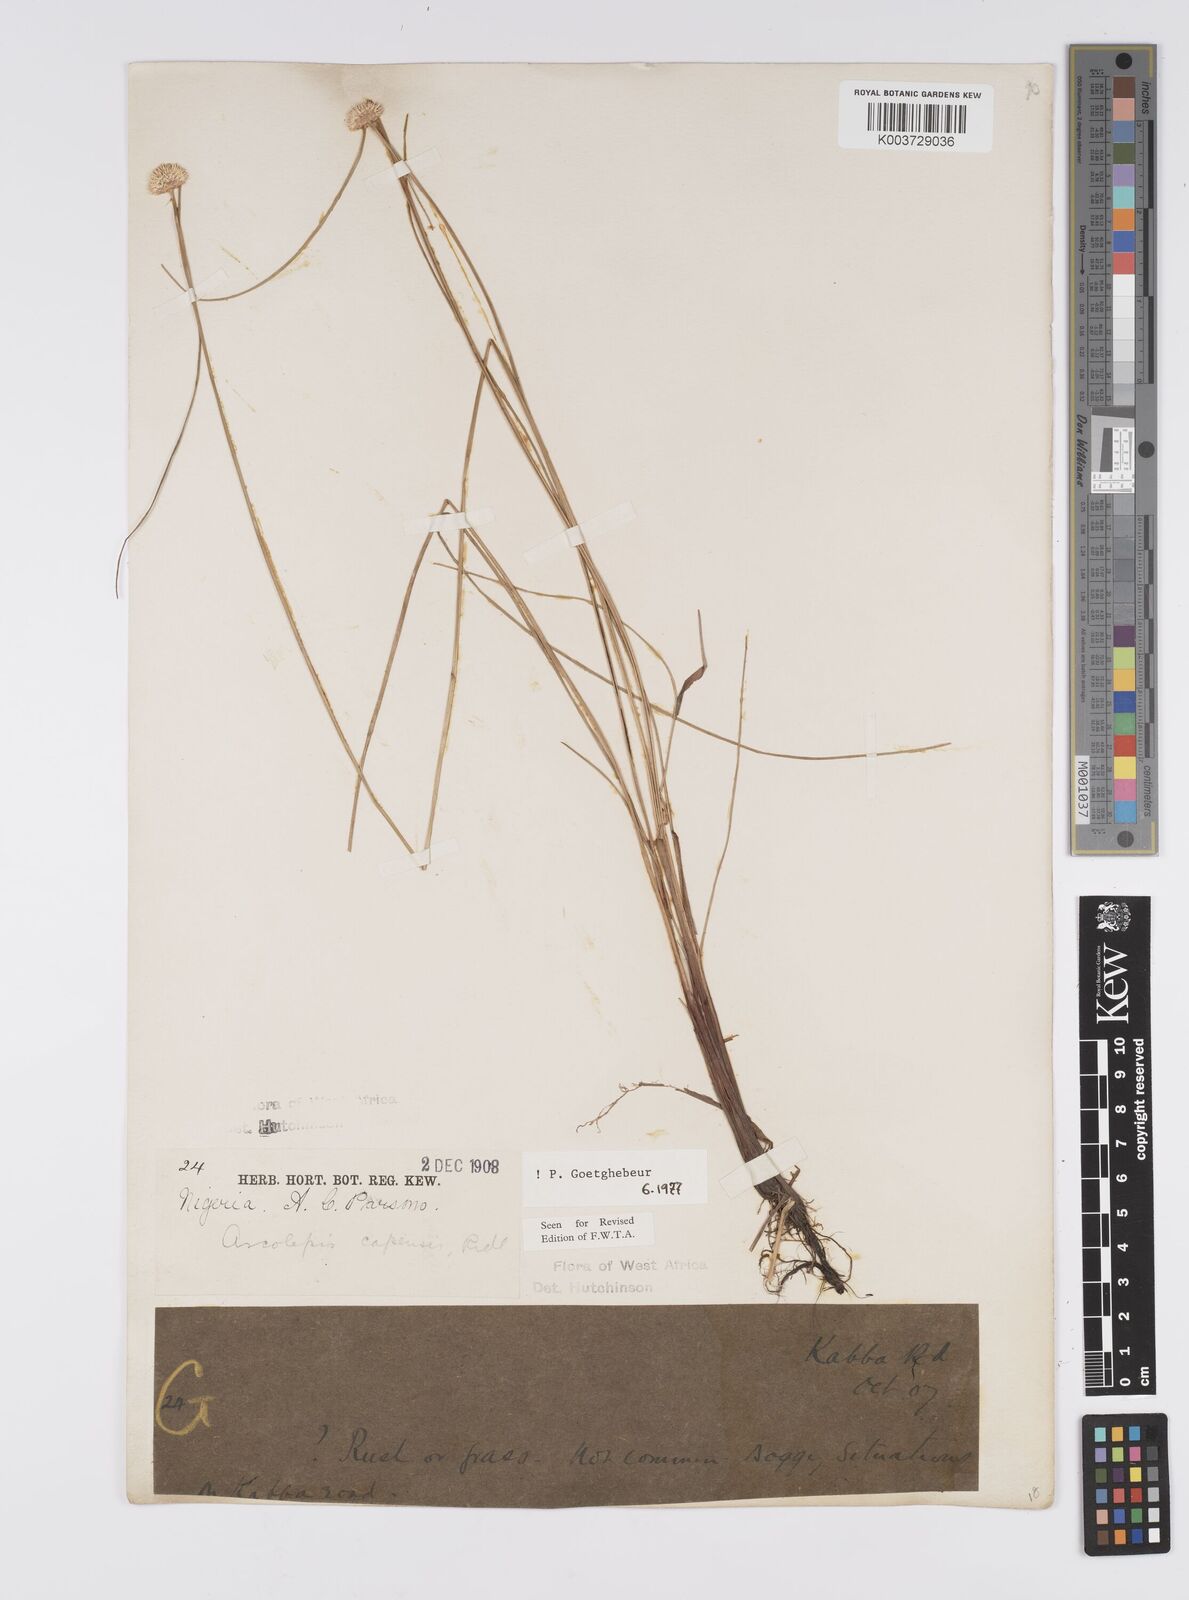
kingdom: Plantae
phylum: Tracheophyta
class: Liliopsida
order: Poales
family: Cyperaceae
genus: Ascolepis
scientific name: Ascolepis
